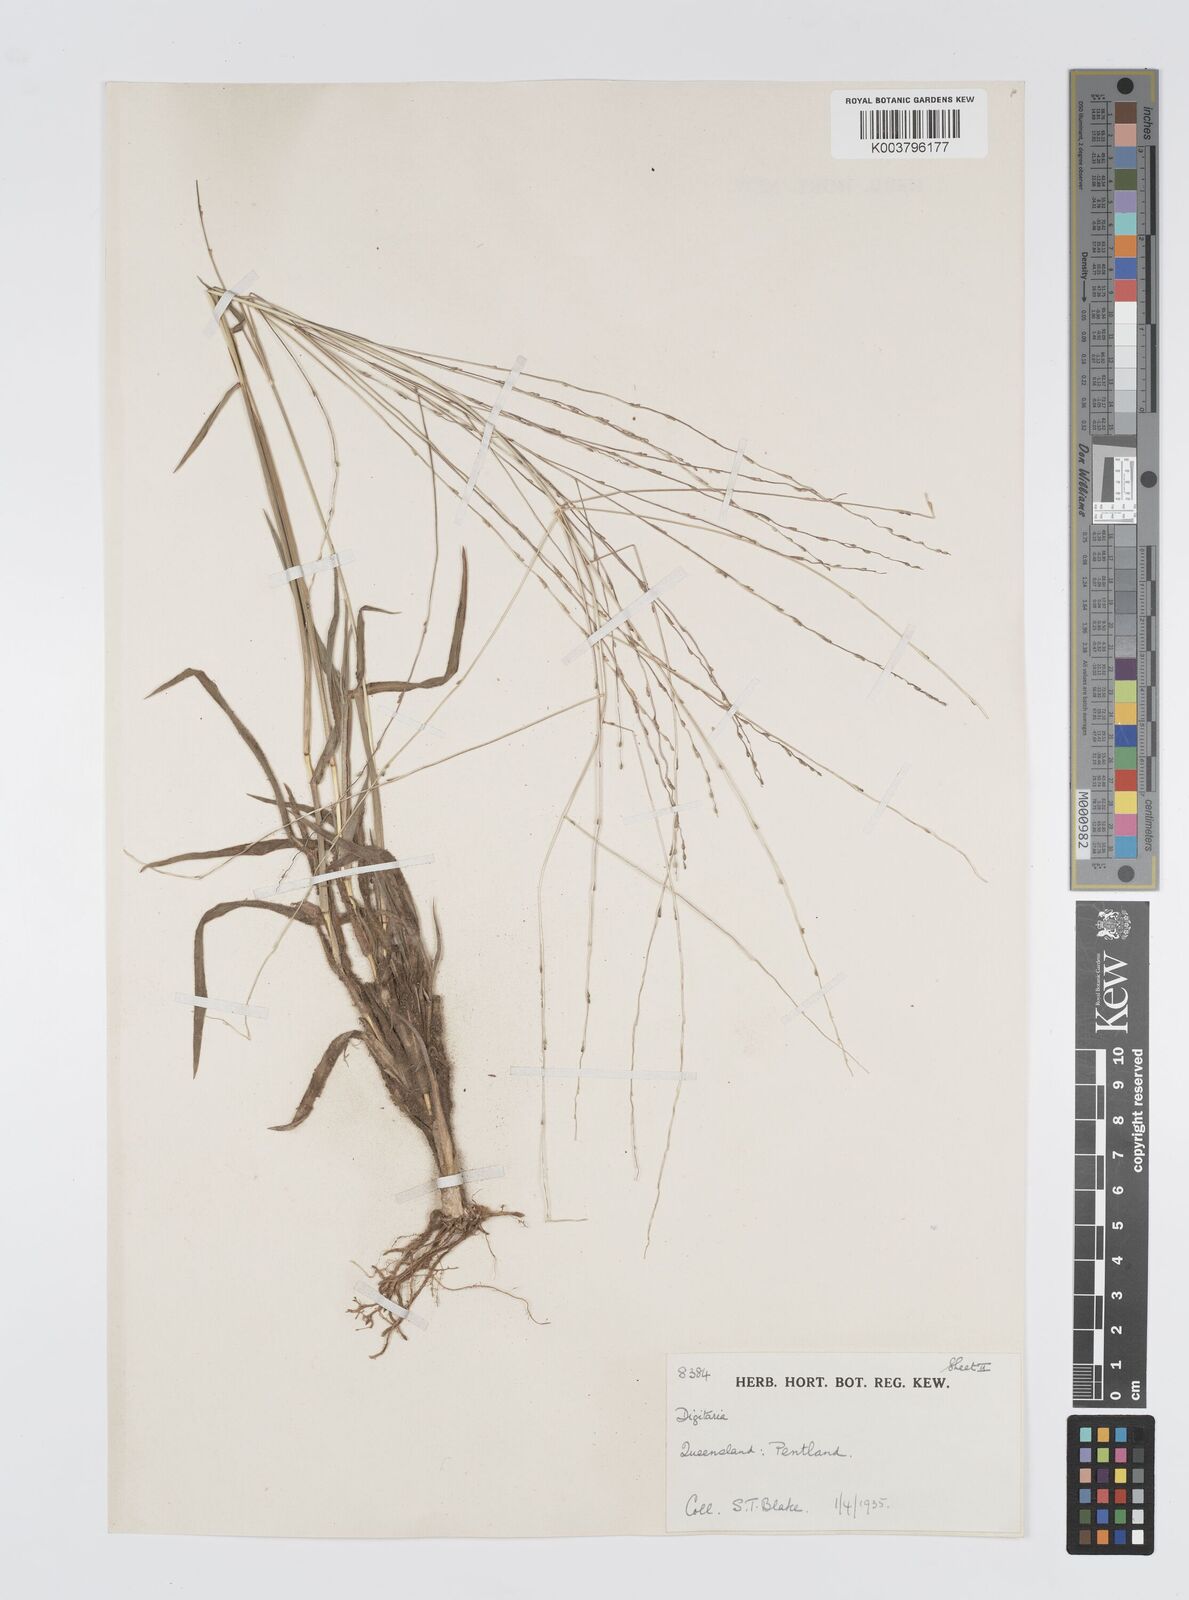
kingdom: Plantae
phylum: Tracheophyta
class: Liliopsida
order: Poales
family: Poaceae
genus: Digitaria
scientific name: Digitaria nematostachya
